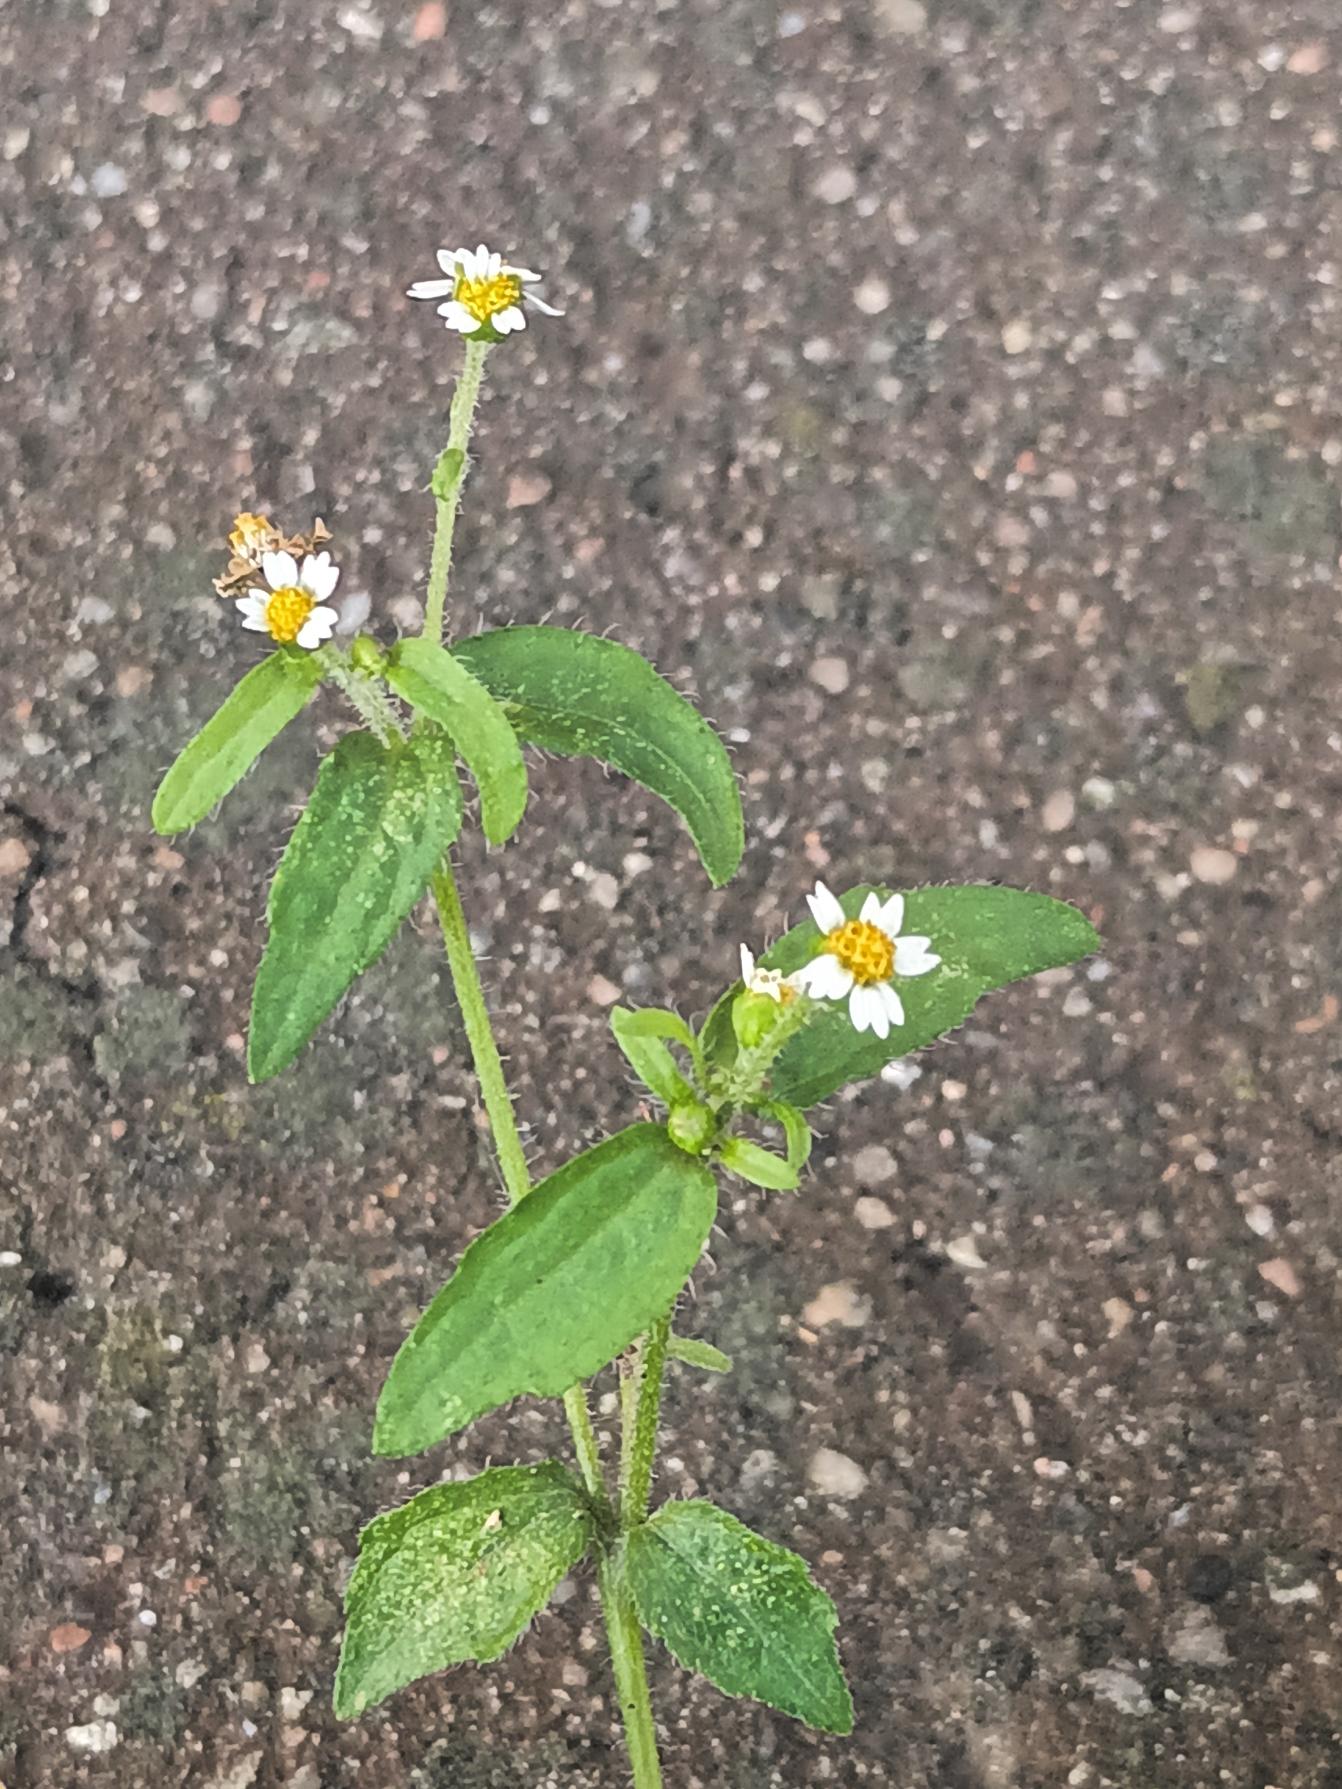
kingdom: Plantae
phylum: Tracheophyta
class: Magnoliopsida
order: Asterales
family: Asteraceae
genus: Galinsoga
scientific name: Galinsoga quadriradiata
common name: Kirtel-kortstråle
